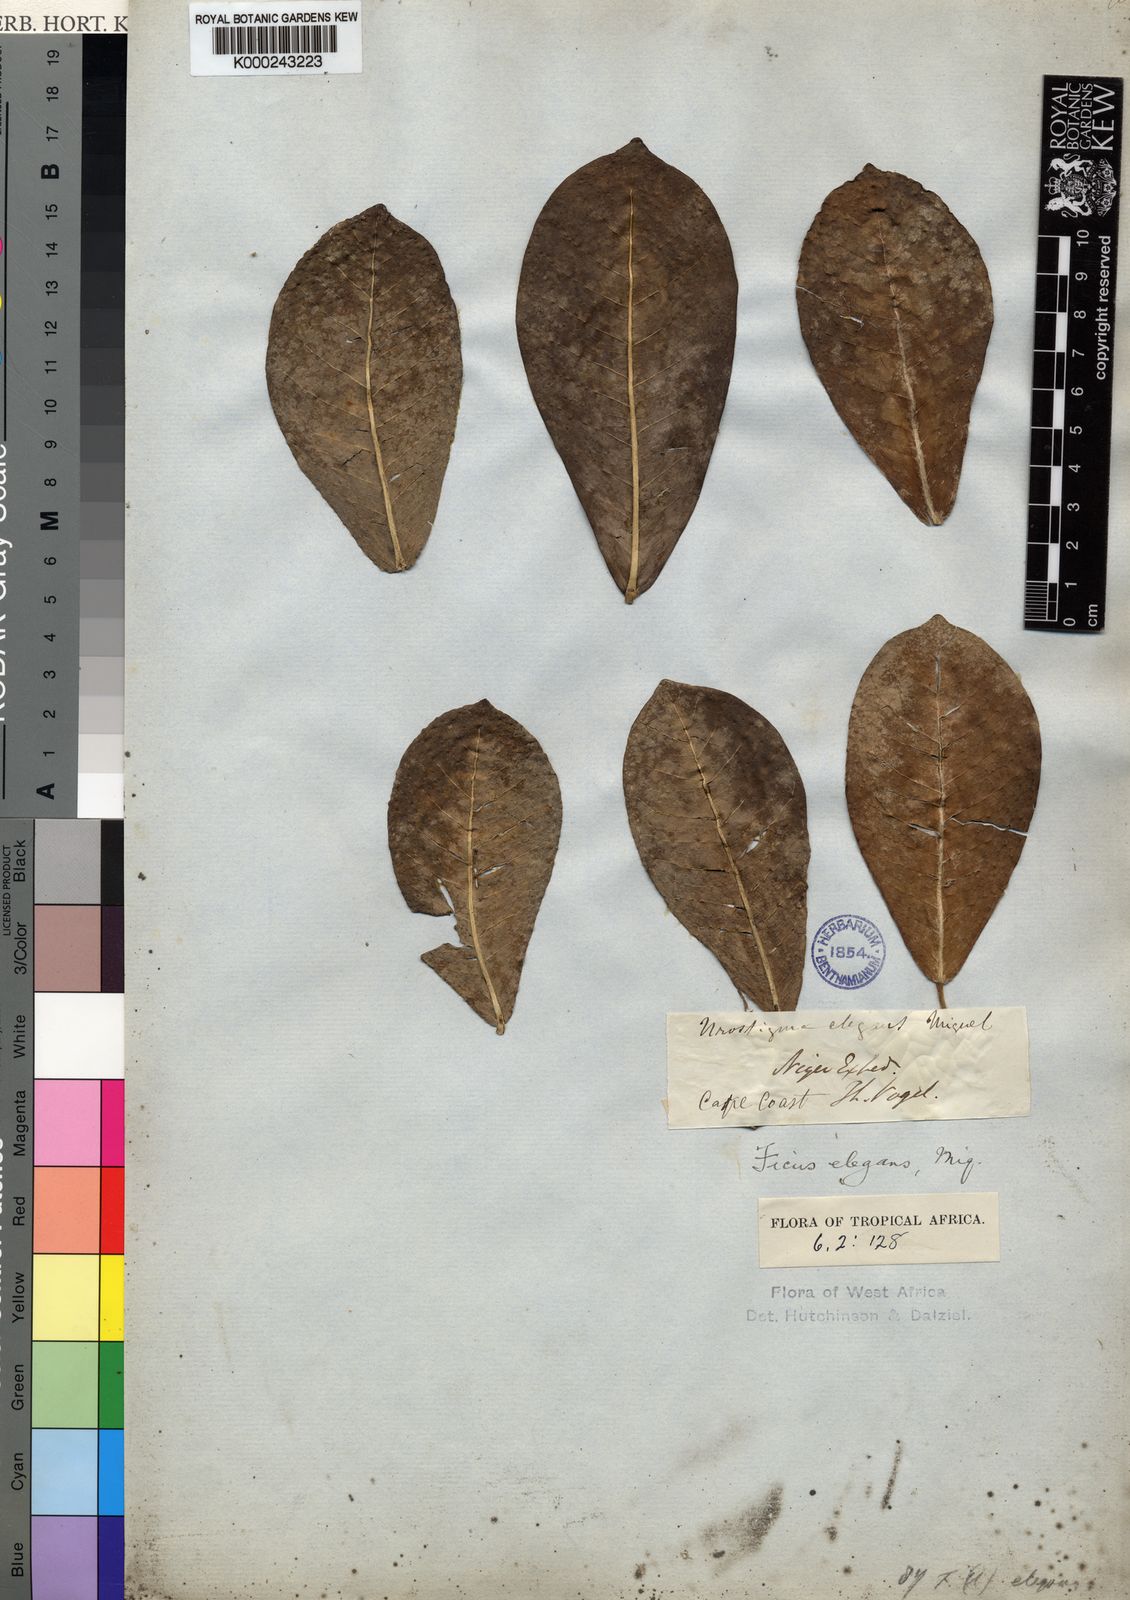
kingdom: Plantae
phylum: Tracheophyta
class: Magnoliopsida
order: Rosales
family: Moraceae
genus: Ficus
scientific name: Ficus
